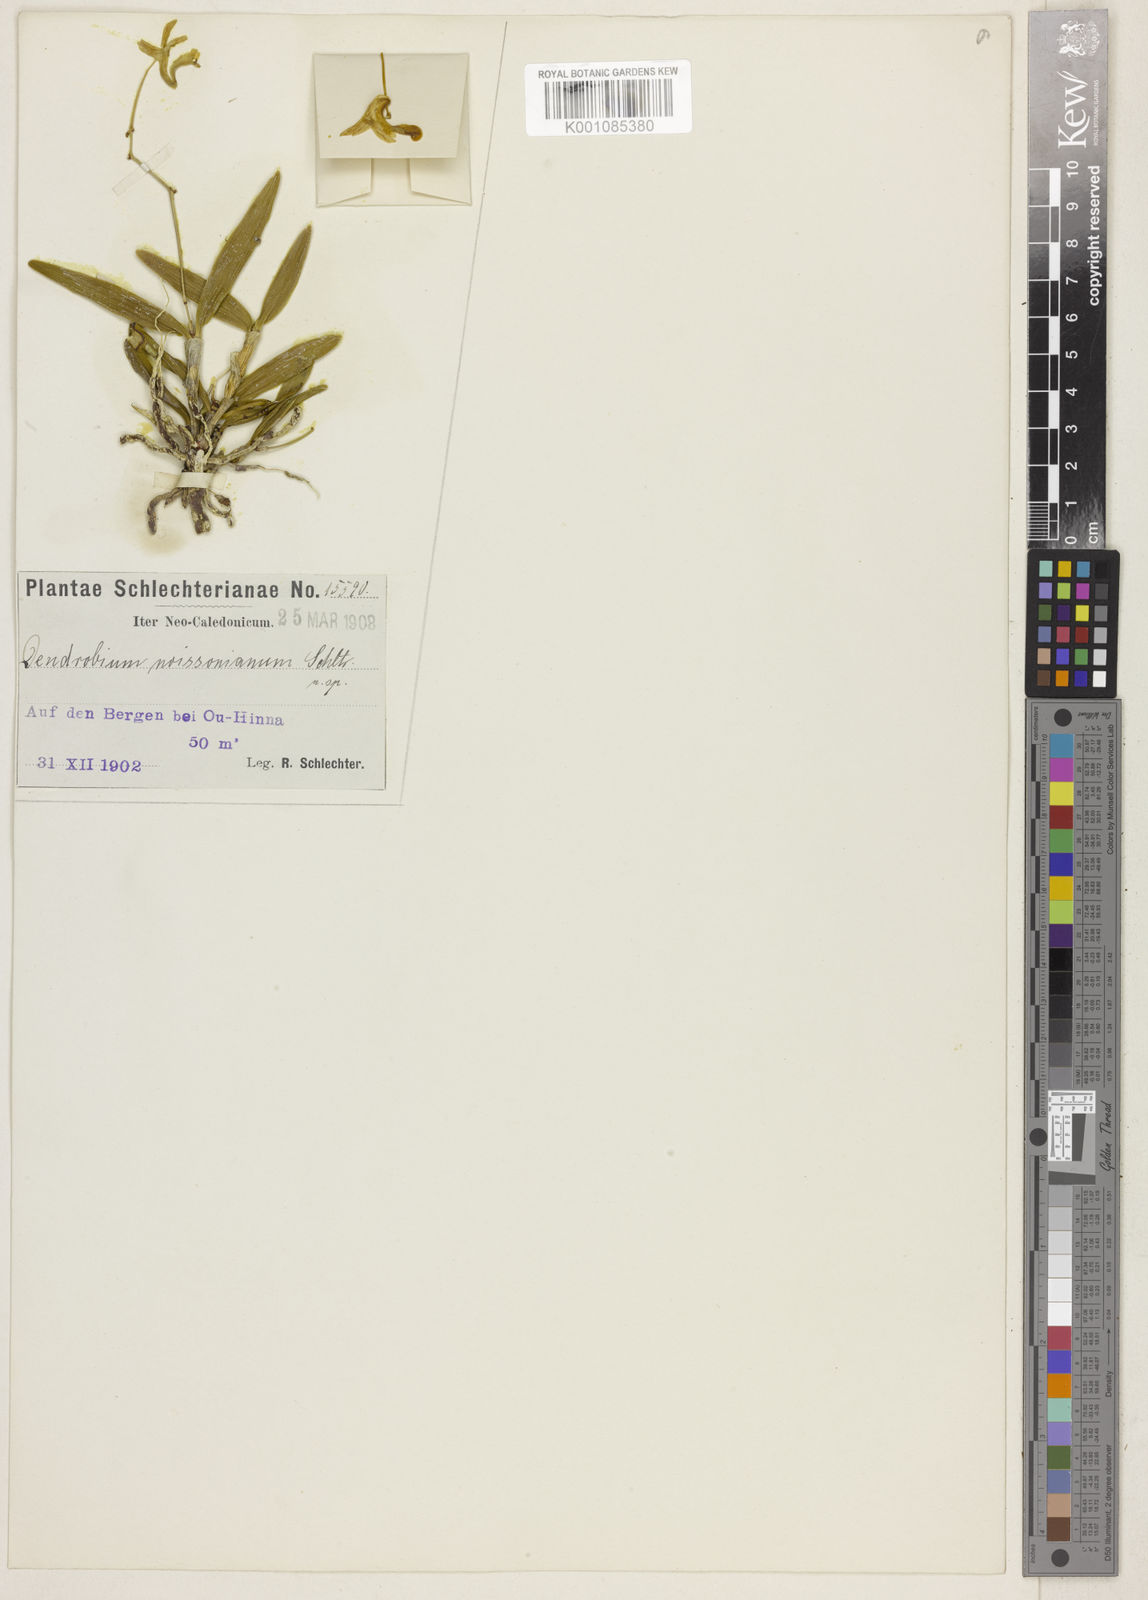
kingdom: Plantae
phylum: Tracheophyta
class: Liliopsida
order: Asparagales
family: Orchidaceae
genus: Dendrobium
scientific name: Dendrobium closterium
